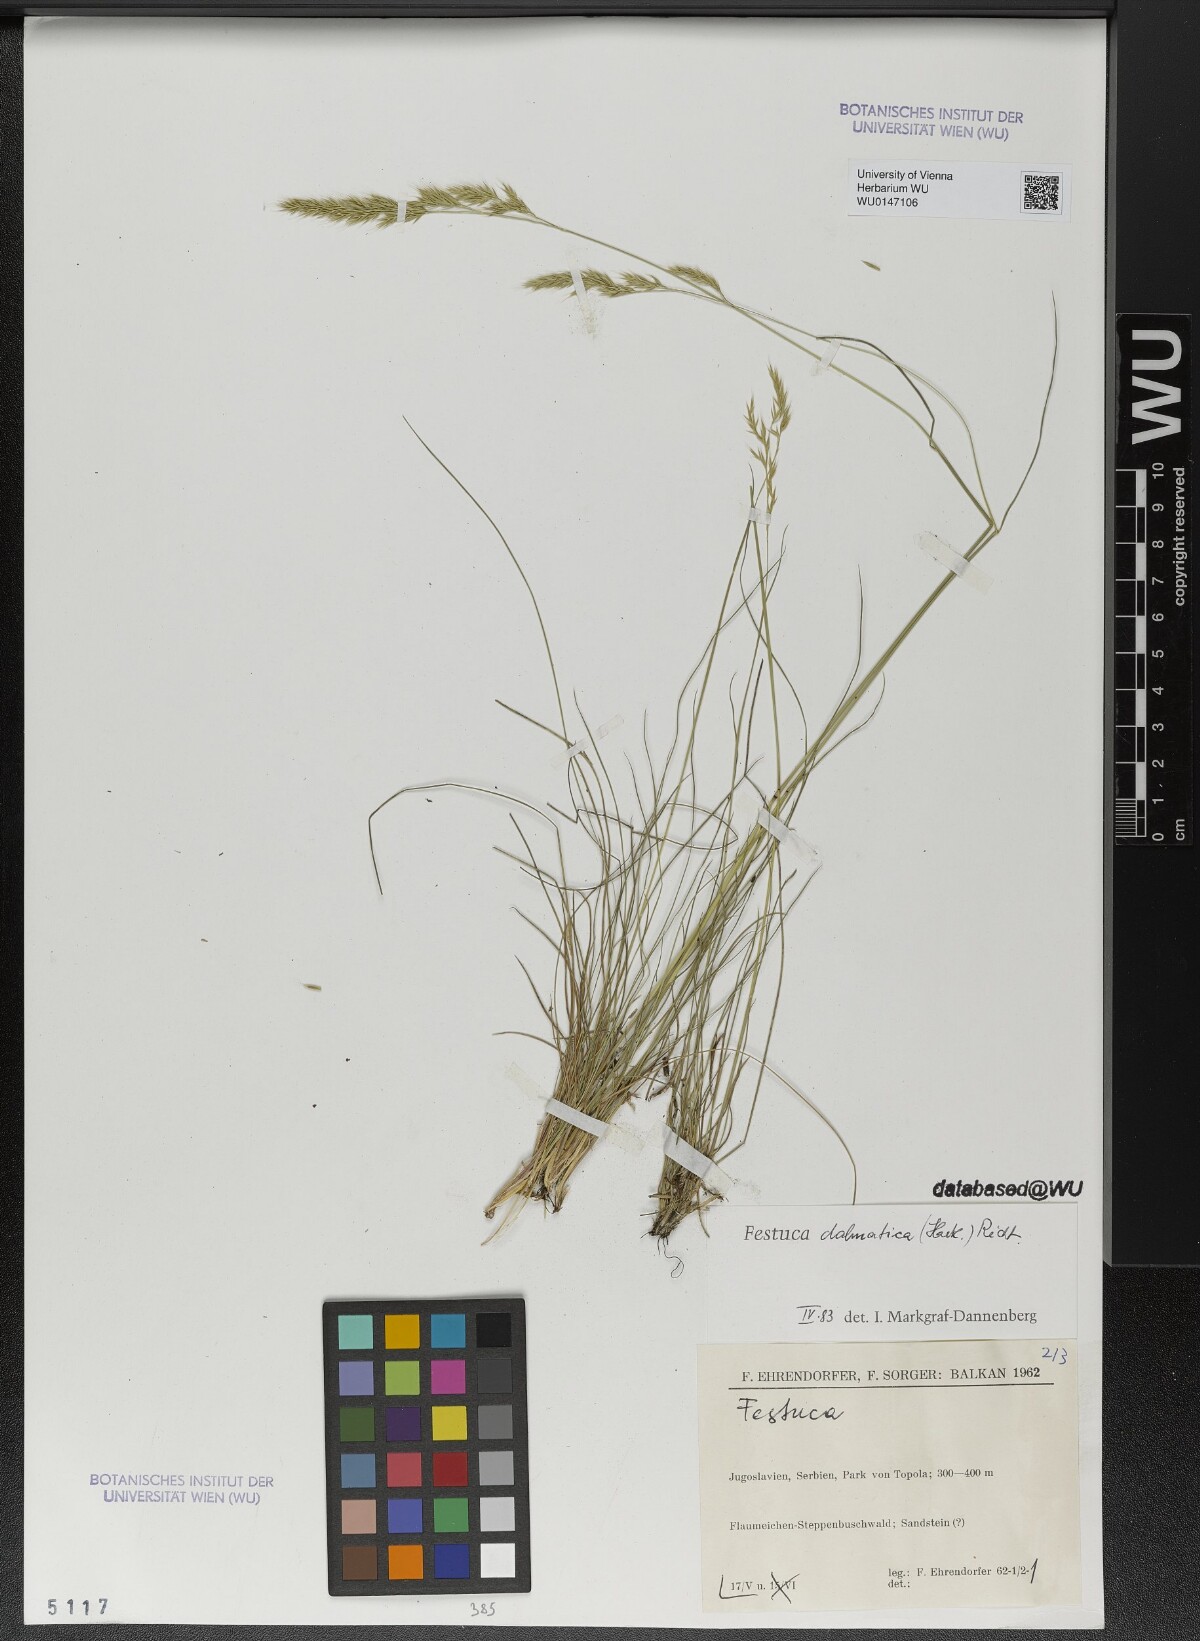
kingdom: Plantae
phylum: Tracheophyta
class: Liliopsida
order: Poales
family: Poaceae
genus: Festuca
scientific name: Festuca dalmatica
